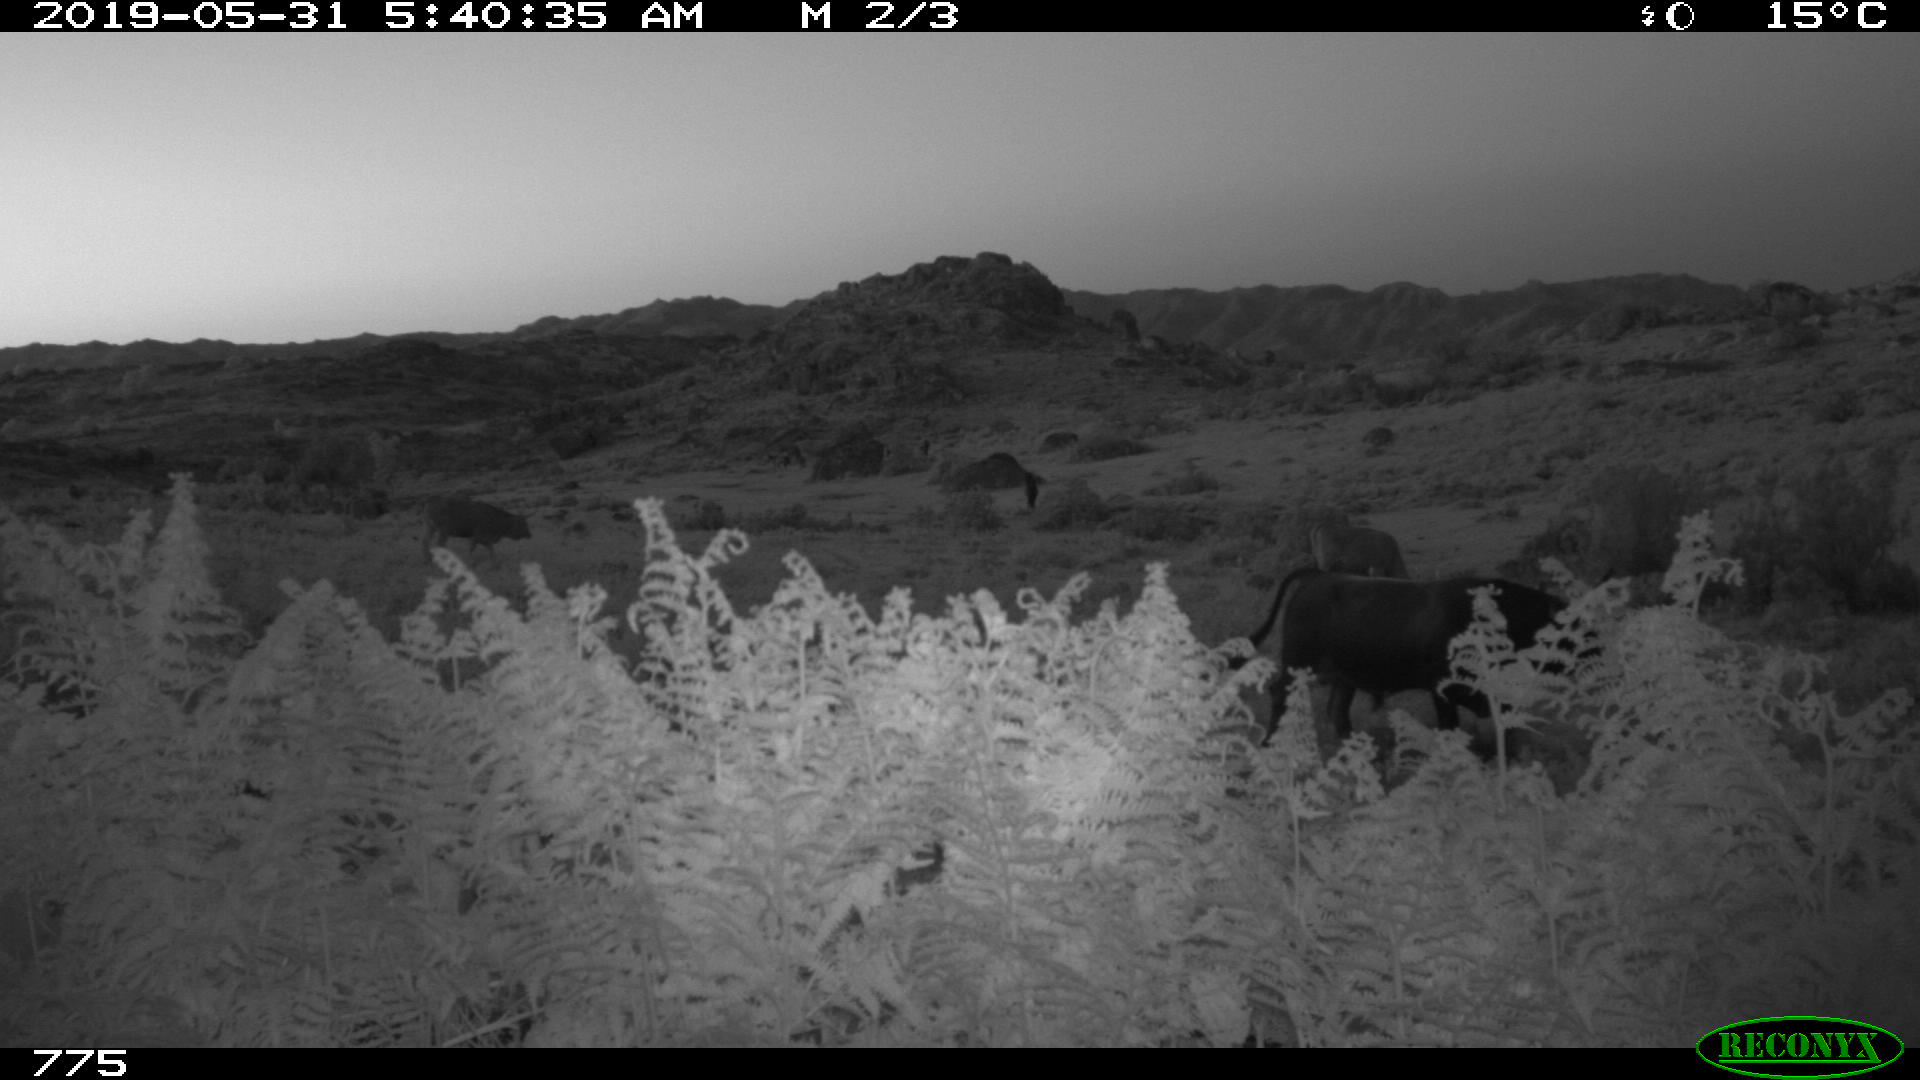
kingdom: Animalia
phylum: Chordata
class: Mammalia
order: Artiodactyla
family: Bovidae
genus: Bos
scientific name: Bos taurus
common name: Domesticated cattle
